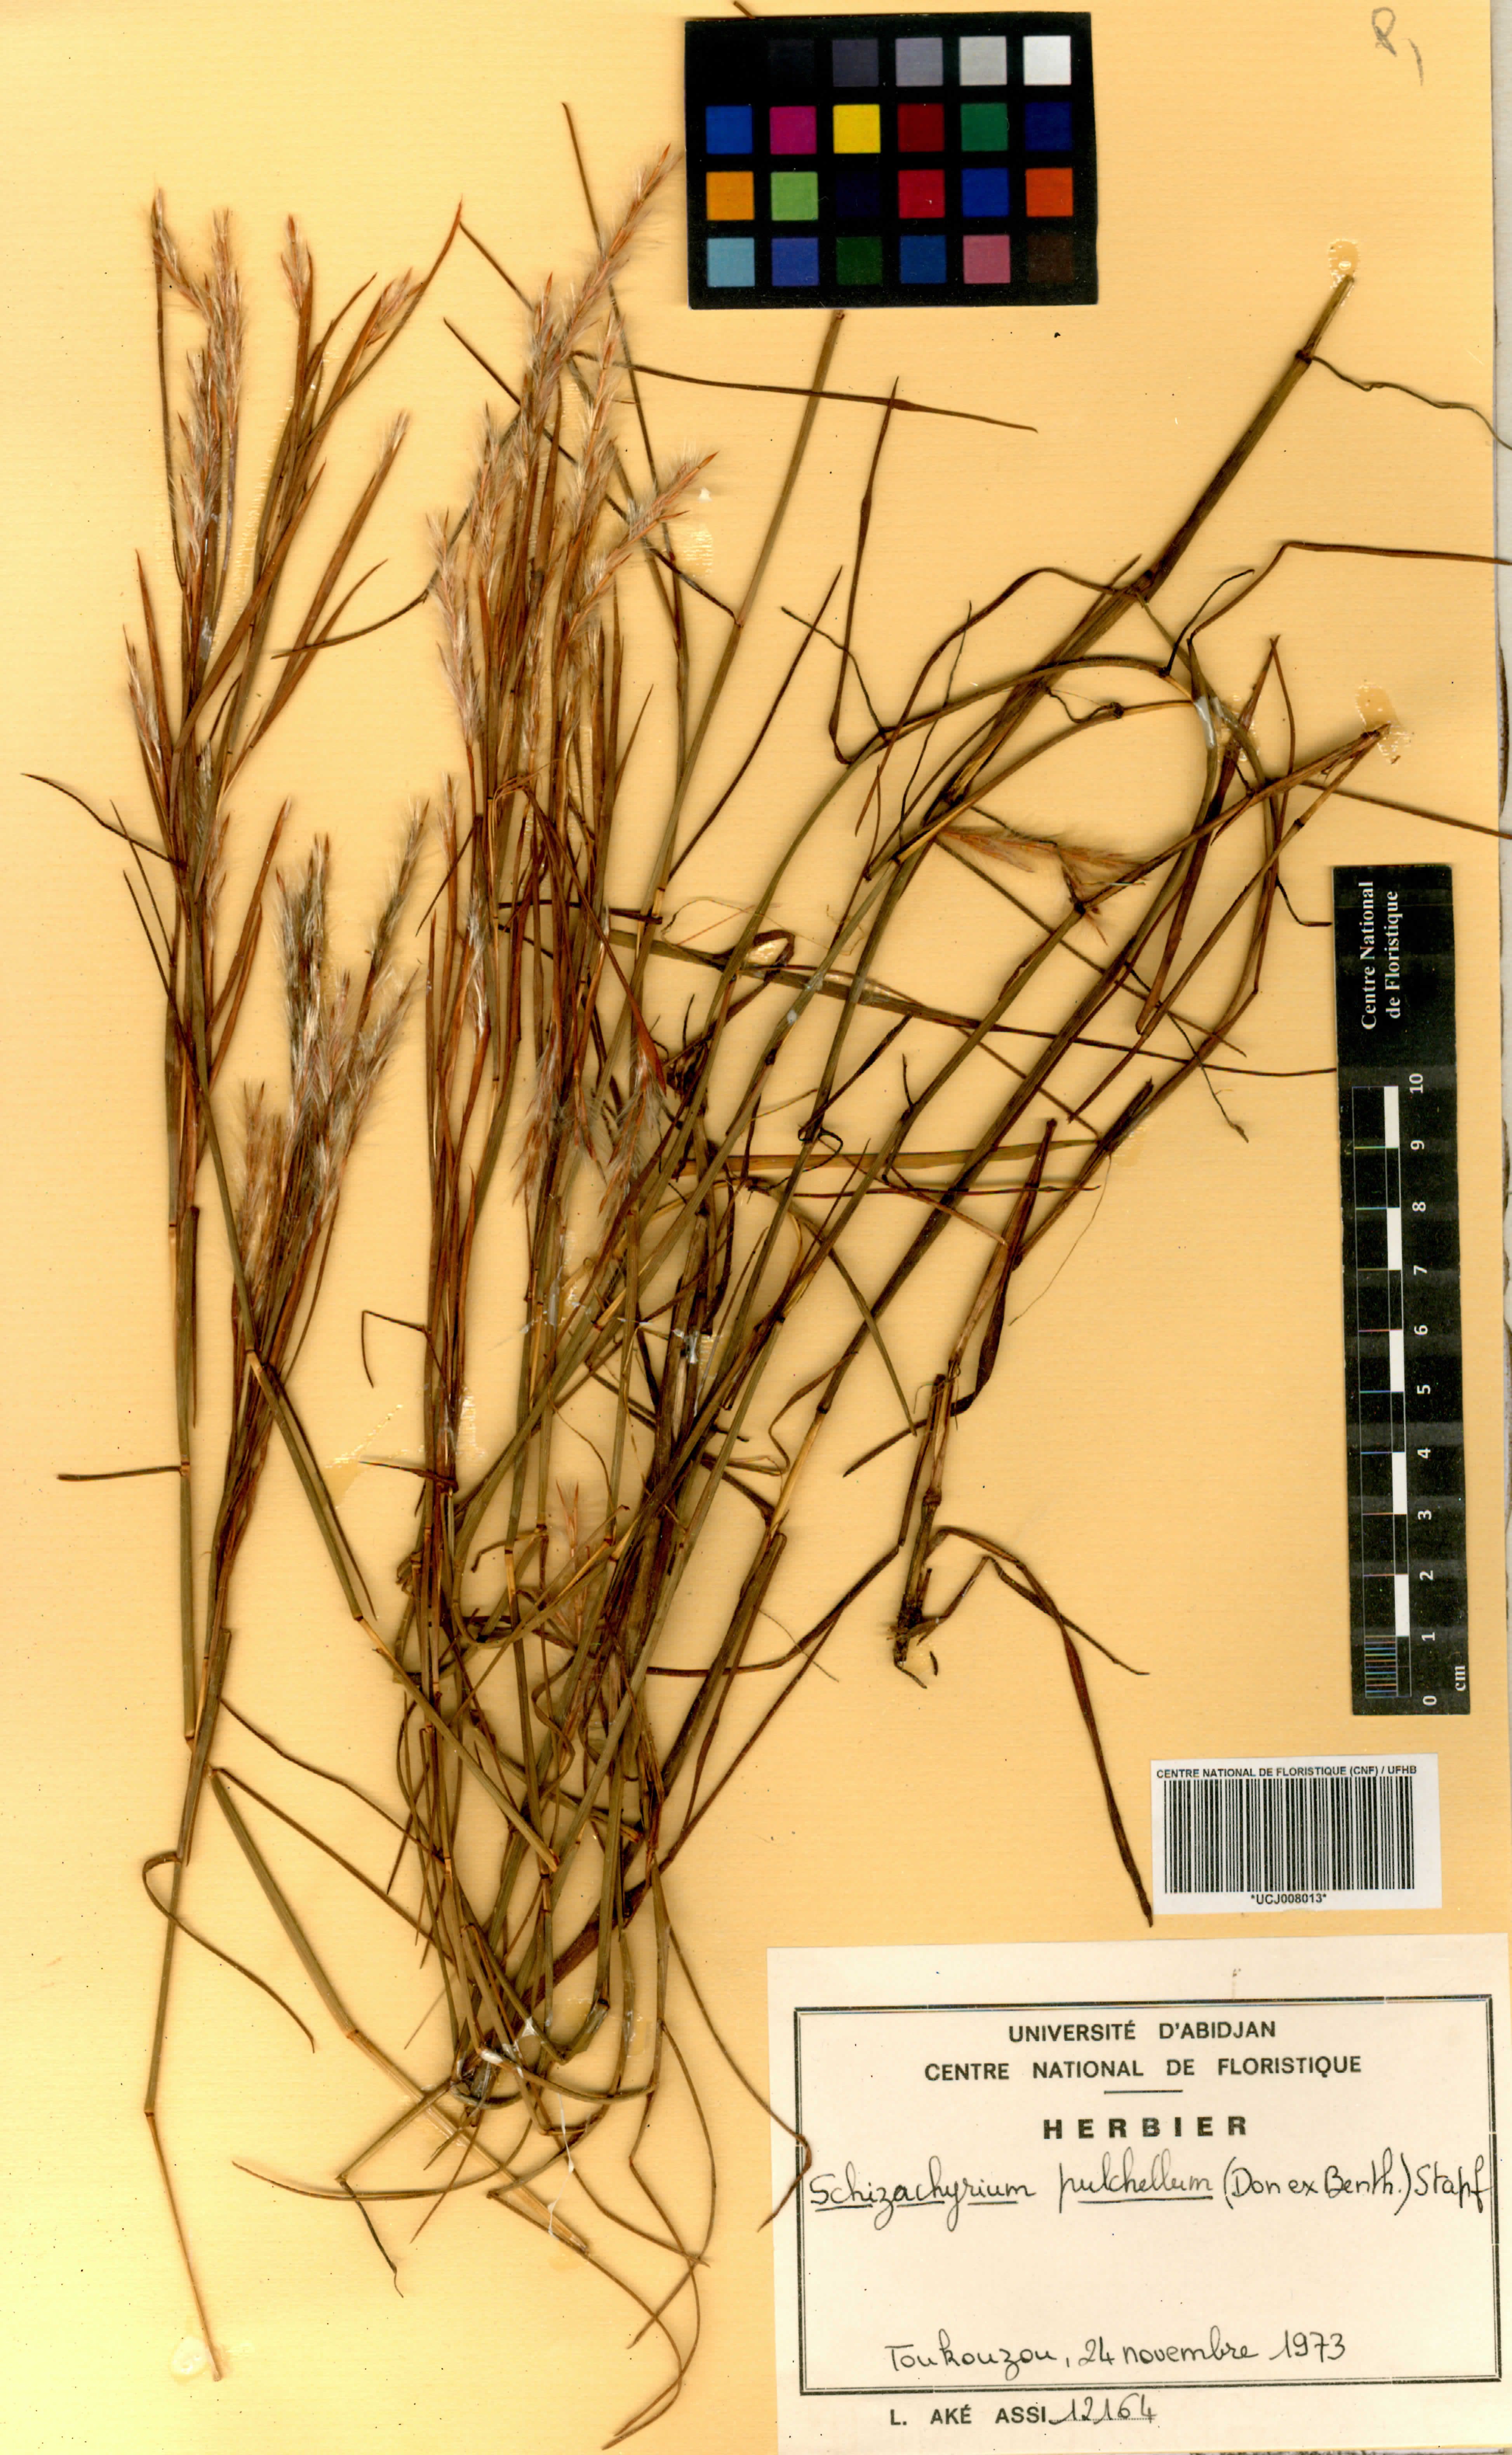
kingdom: Plantae
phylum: Tracheophyta
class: Liliopsida
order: Poales
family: Poaceae
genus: Schizachyrium
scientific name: Schizachyrium pulchellum
